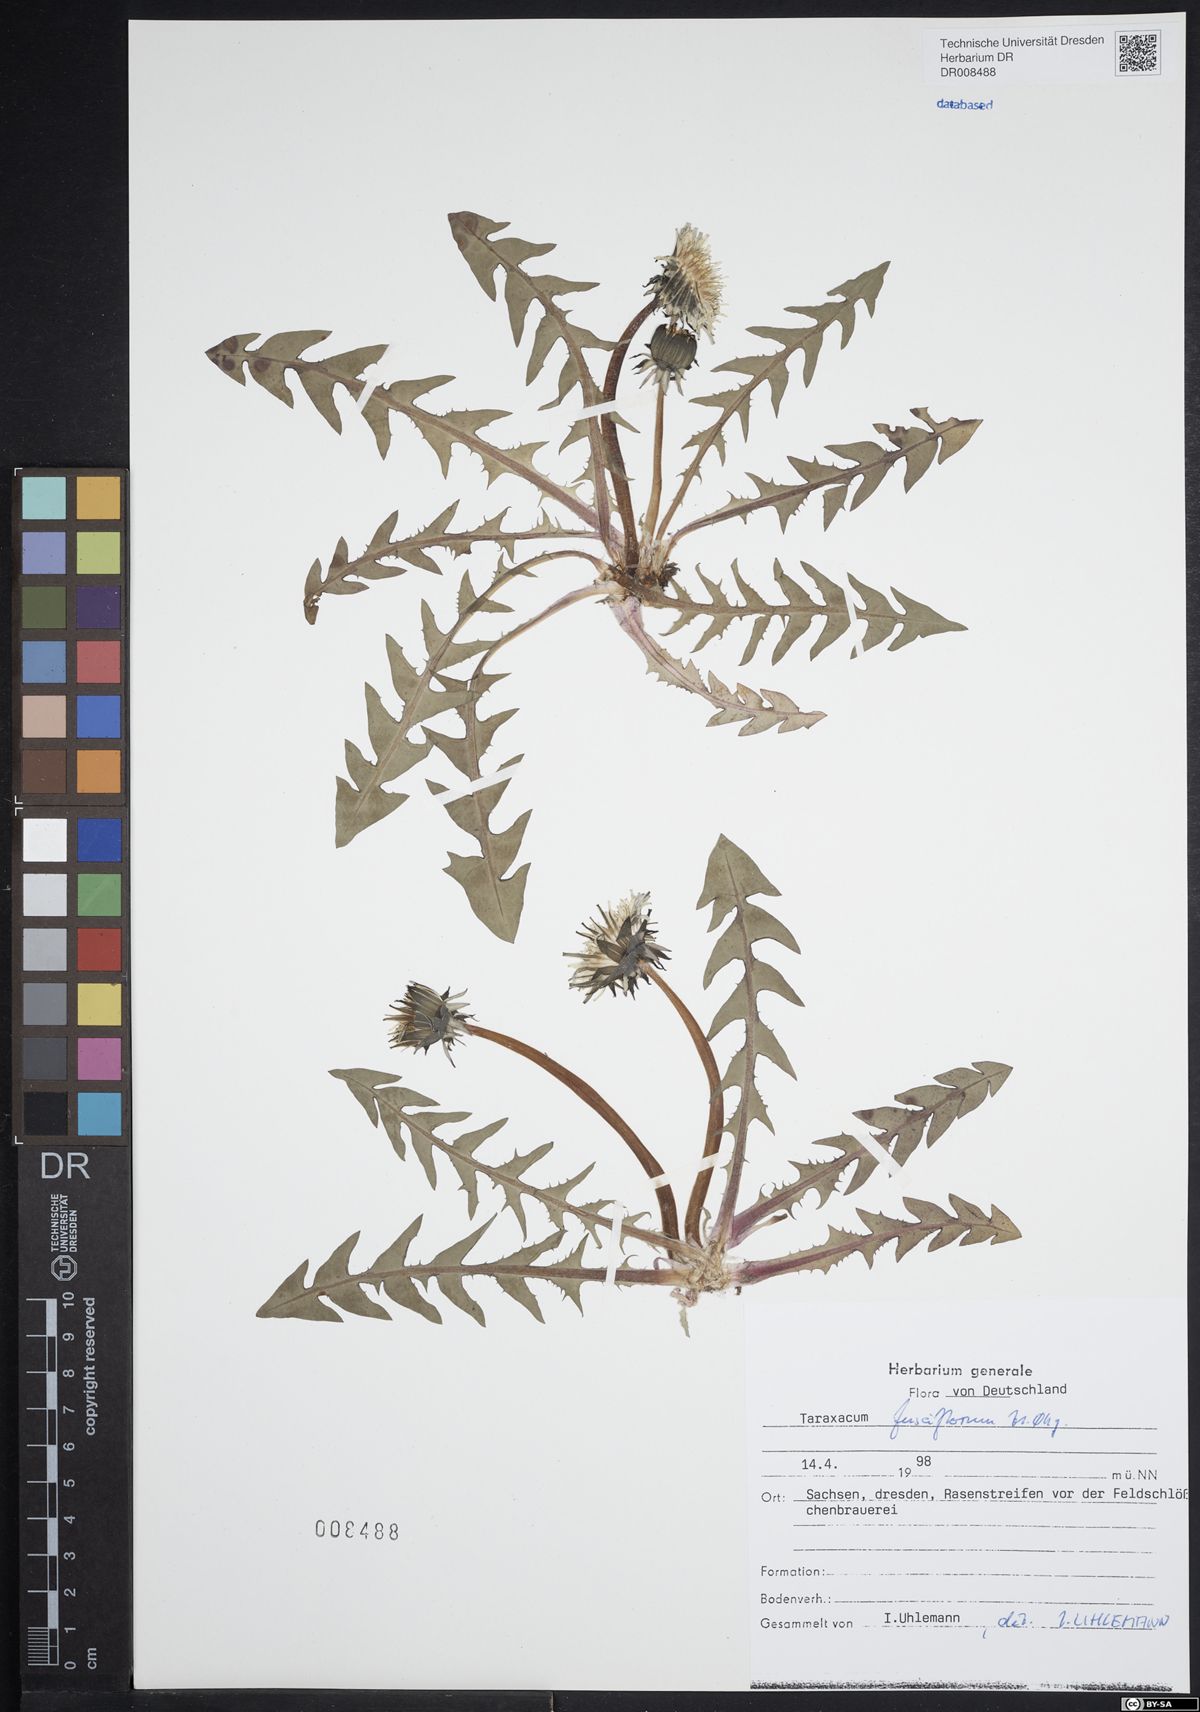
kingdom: Plantae
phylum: Tracheophyta
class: Magnoliopsida
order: Asterales
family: Asteraceae
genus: Taraxacum
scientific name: Taraxacum fusciflorum
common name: Brown-striped dandelion
